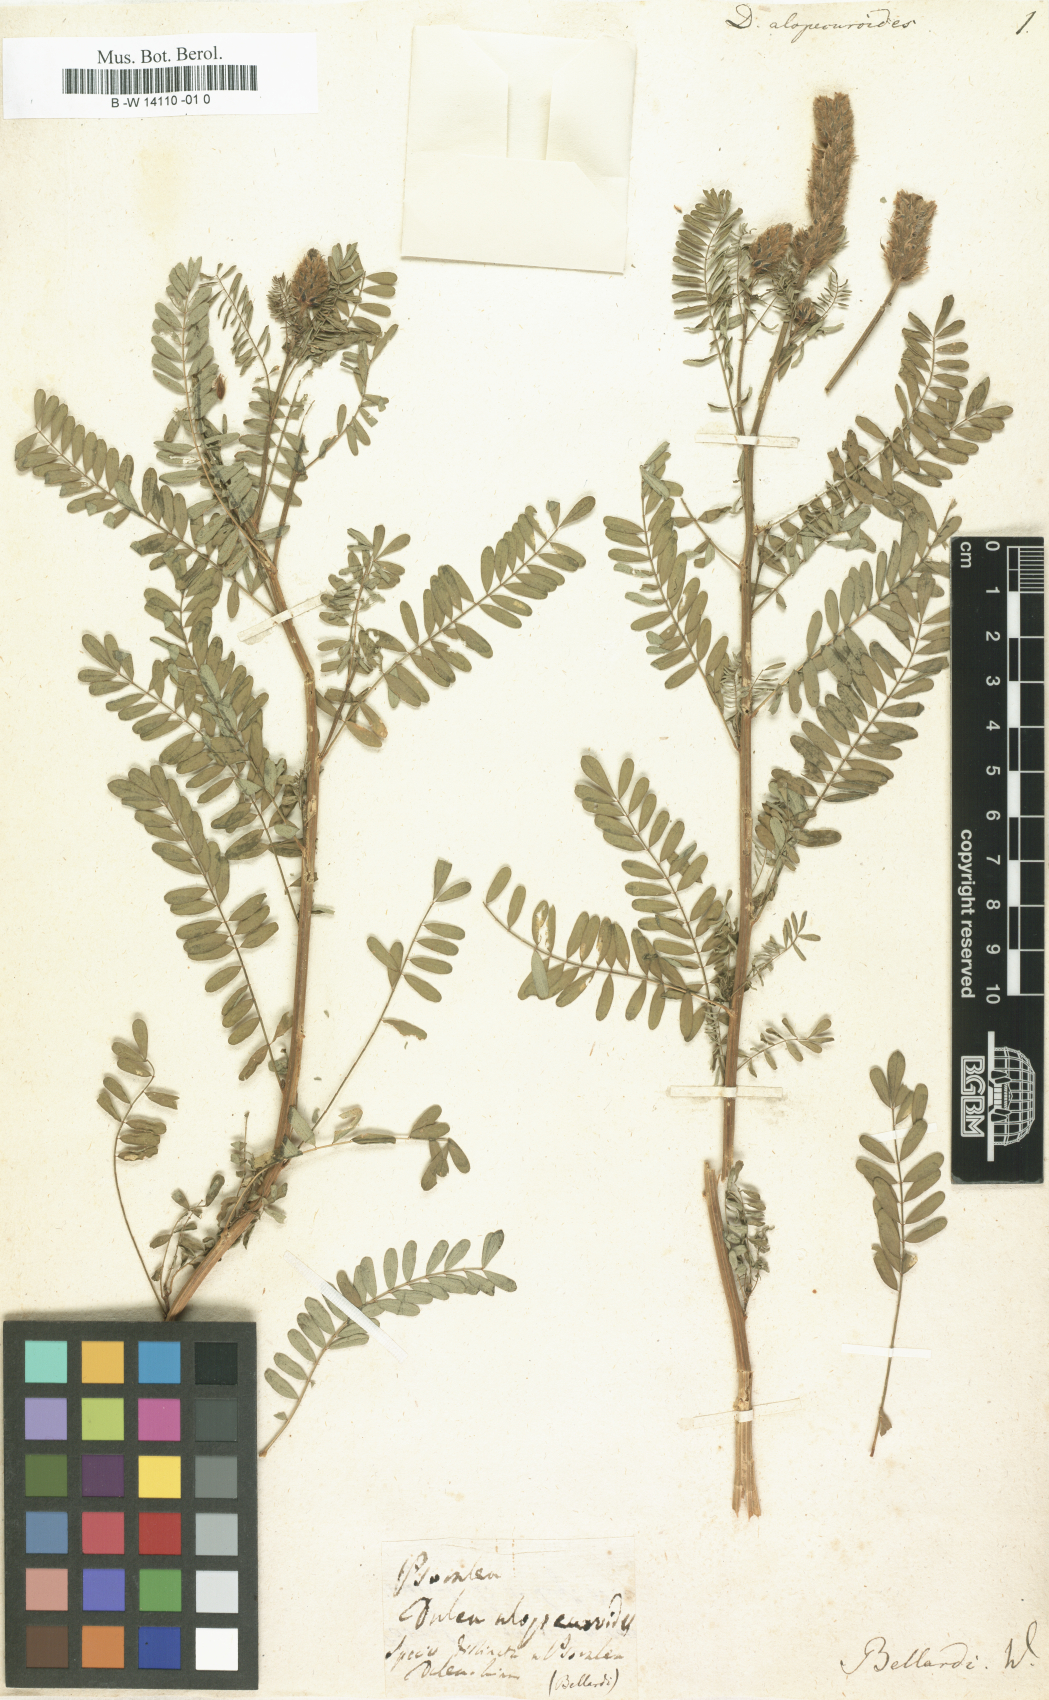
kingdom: Plantae
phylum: Tracheophyta
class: Magnoliopsida
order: Fabales
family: Fabaceae
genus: Dalea
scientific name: Dalea leporina
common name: Foxtail dalea
